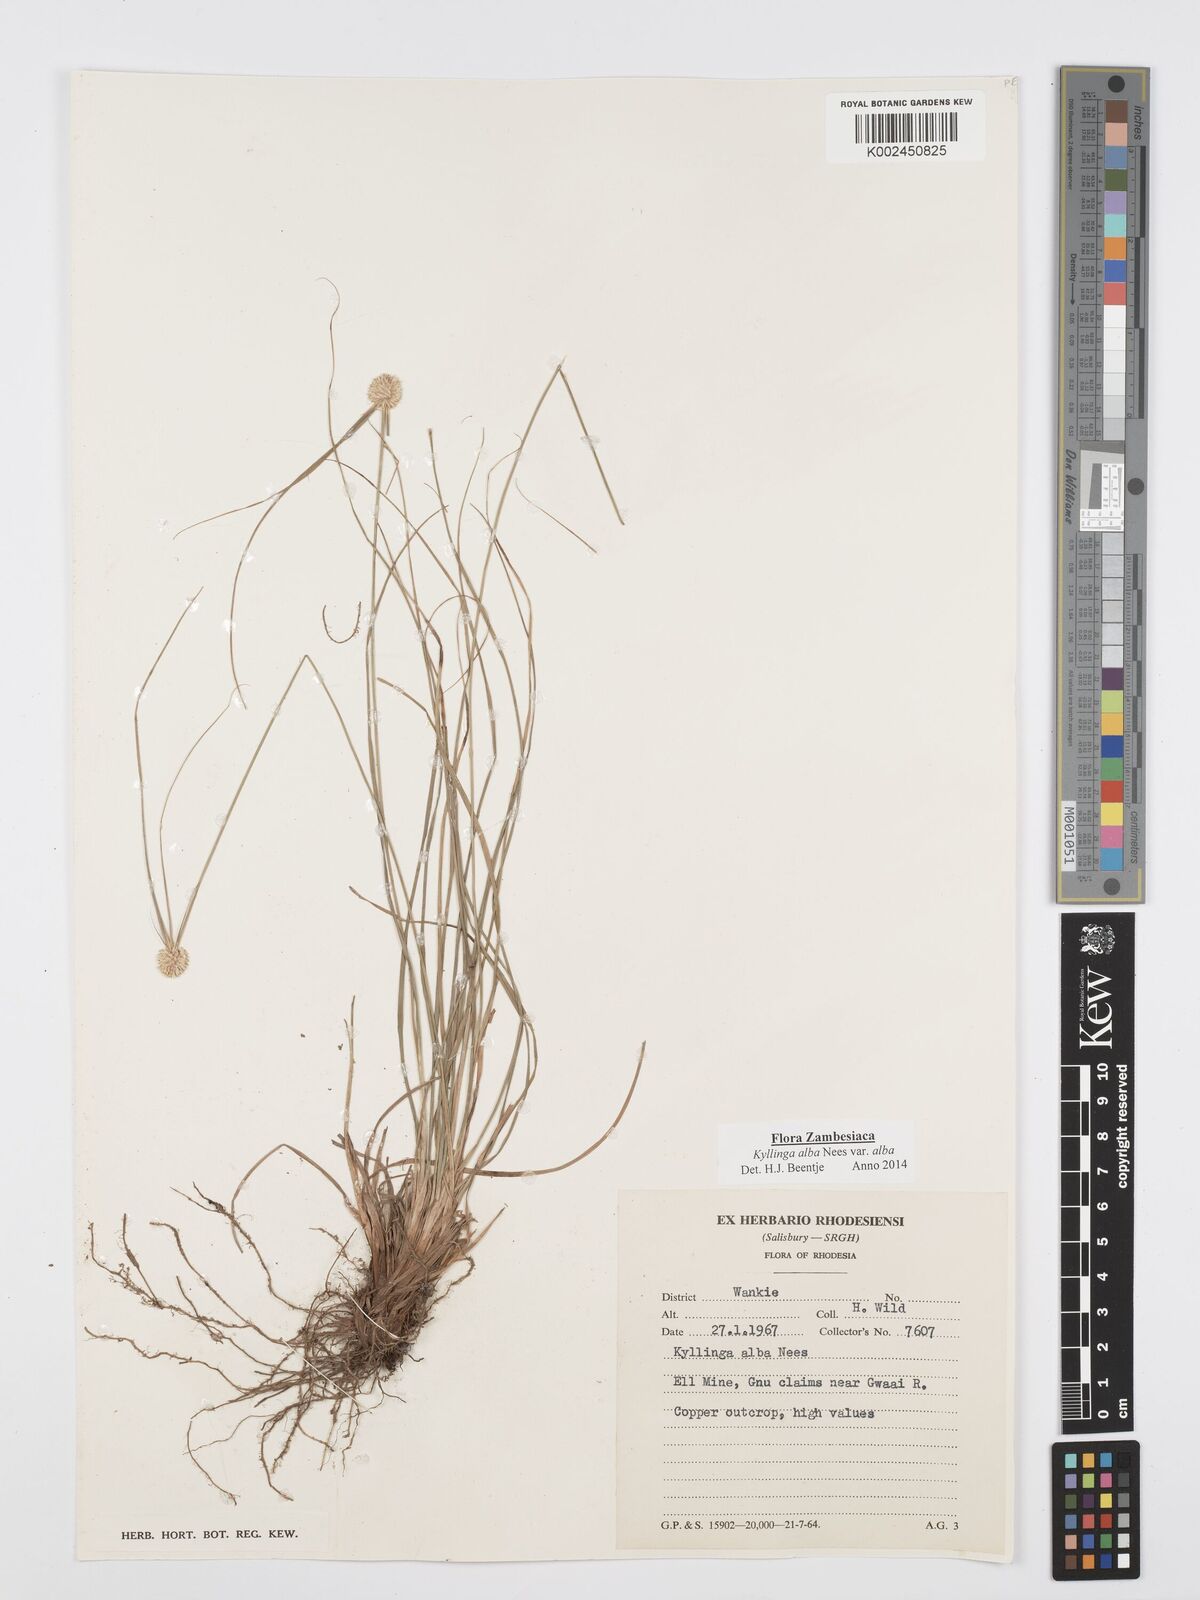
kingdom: Plantae
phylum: Tracheophyta
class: Liliopsida
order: Poales
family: Cyperaceae
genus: Cyperus
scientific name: Cyperus
